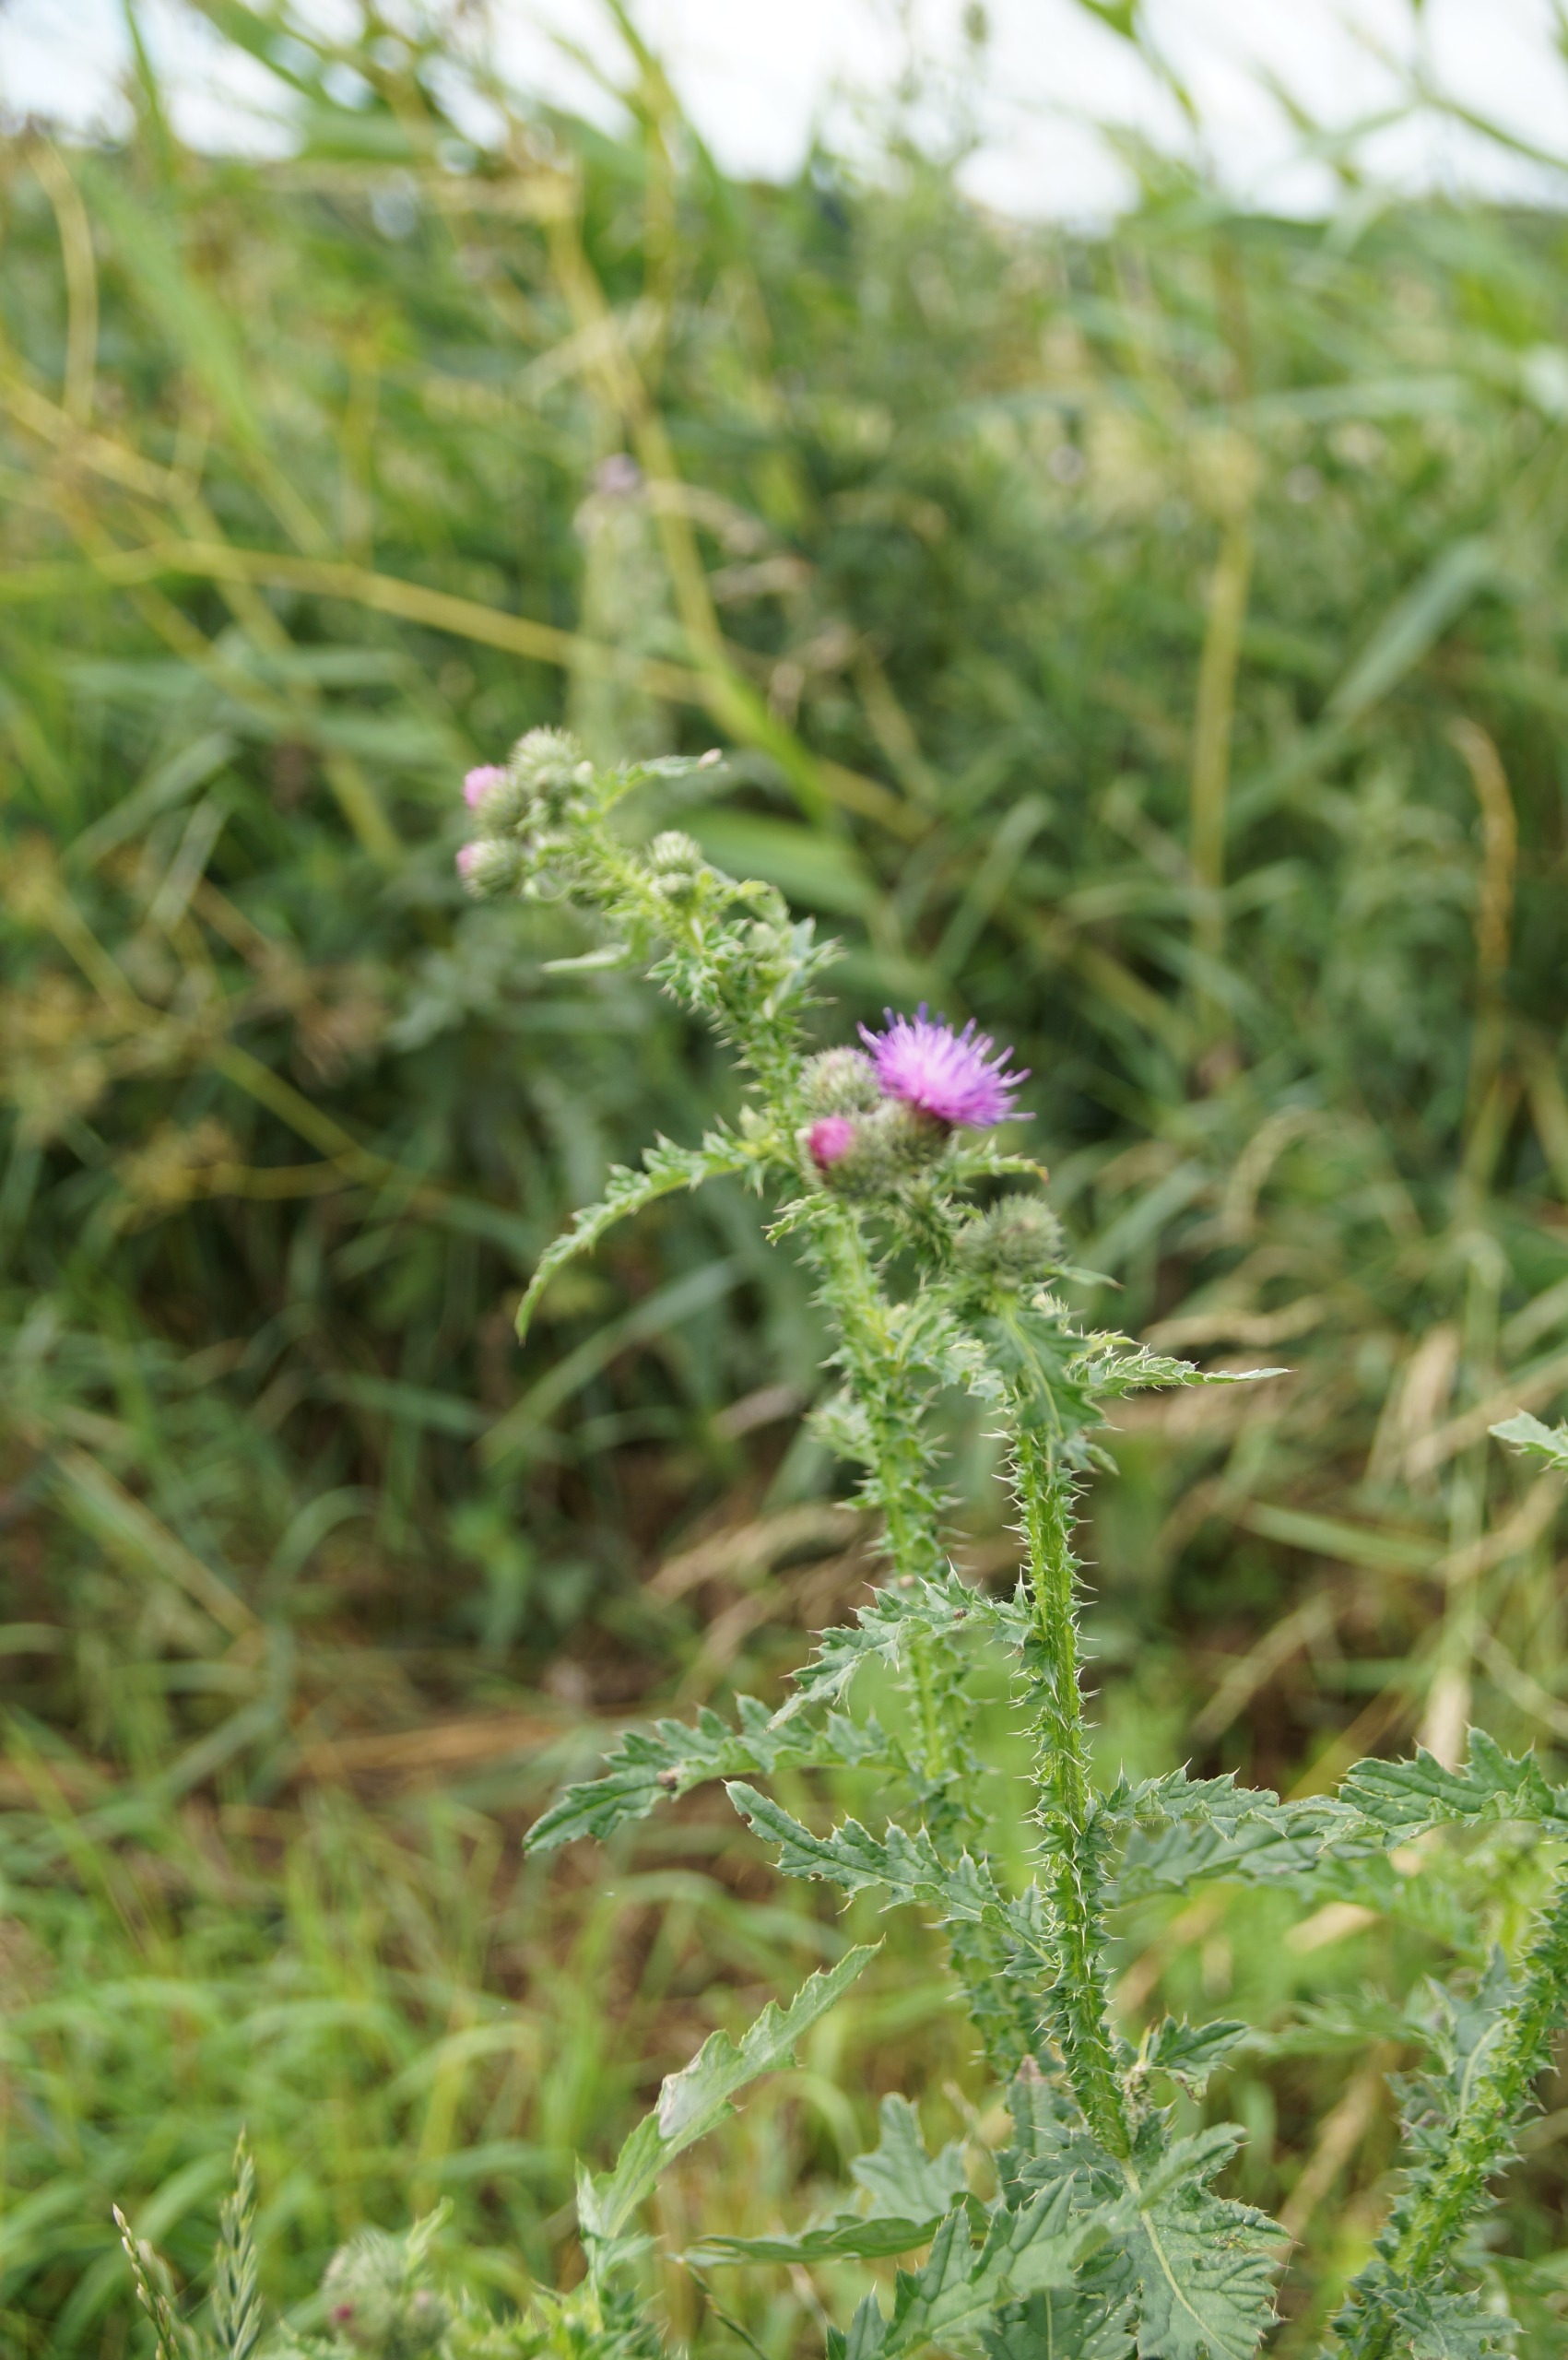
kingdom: Plantae
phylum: Tracheophyta
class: Magnoliopsida
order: Asterales
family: Asteraceae
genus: Carduus
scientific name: Carduus crispus
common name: Kruset tidsel
